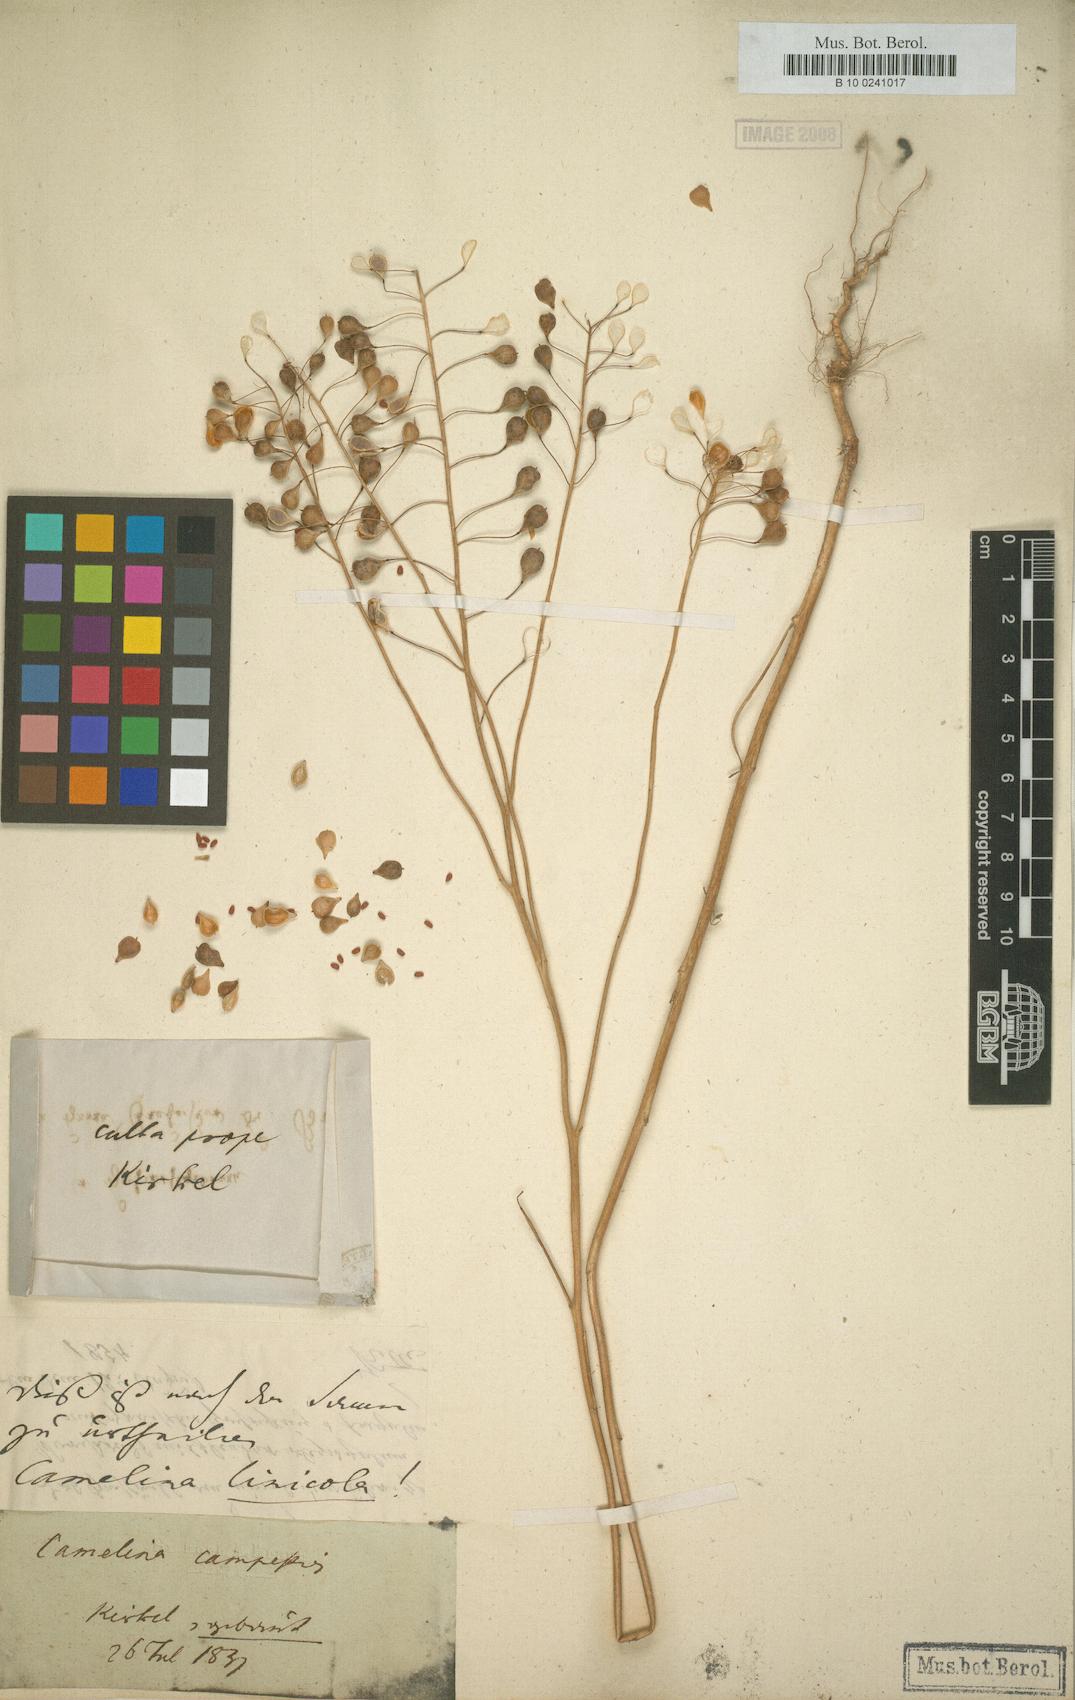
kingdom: Plantae
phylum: Tracheophyta
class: Magnoliopsida
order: Brassicales
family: Brassicaceae
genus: Camelina
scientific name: Camelina alyssum
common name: Gold-of-pleasure
